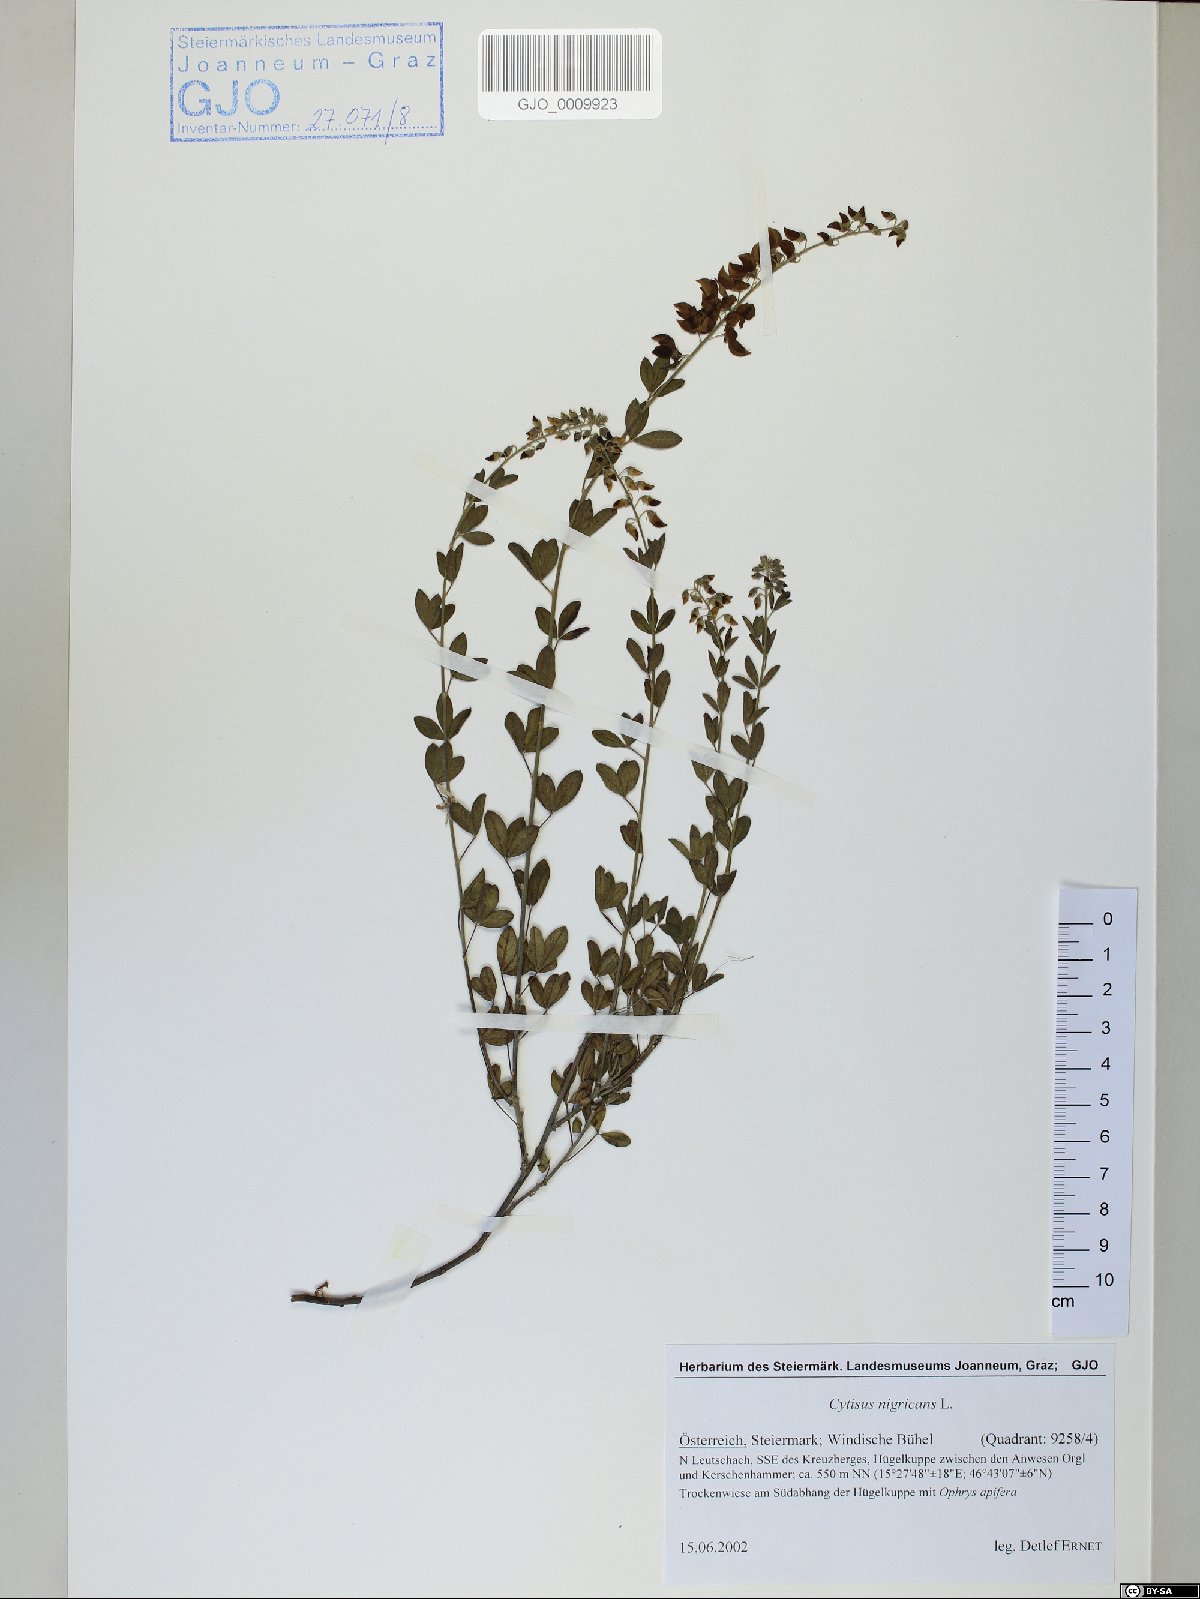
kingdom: Plantae
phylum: Tracheophyta
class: Magnoliopsida
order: Fabales
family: Fabaceae
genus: Cytisus
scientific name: Cytisus nigricans
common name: Black broom
